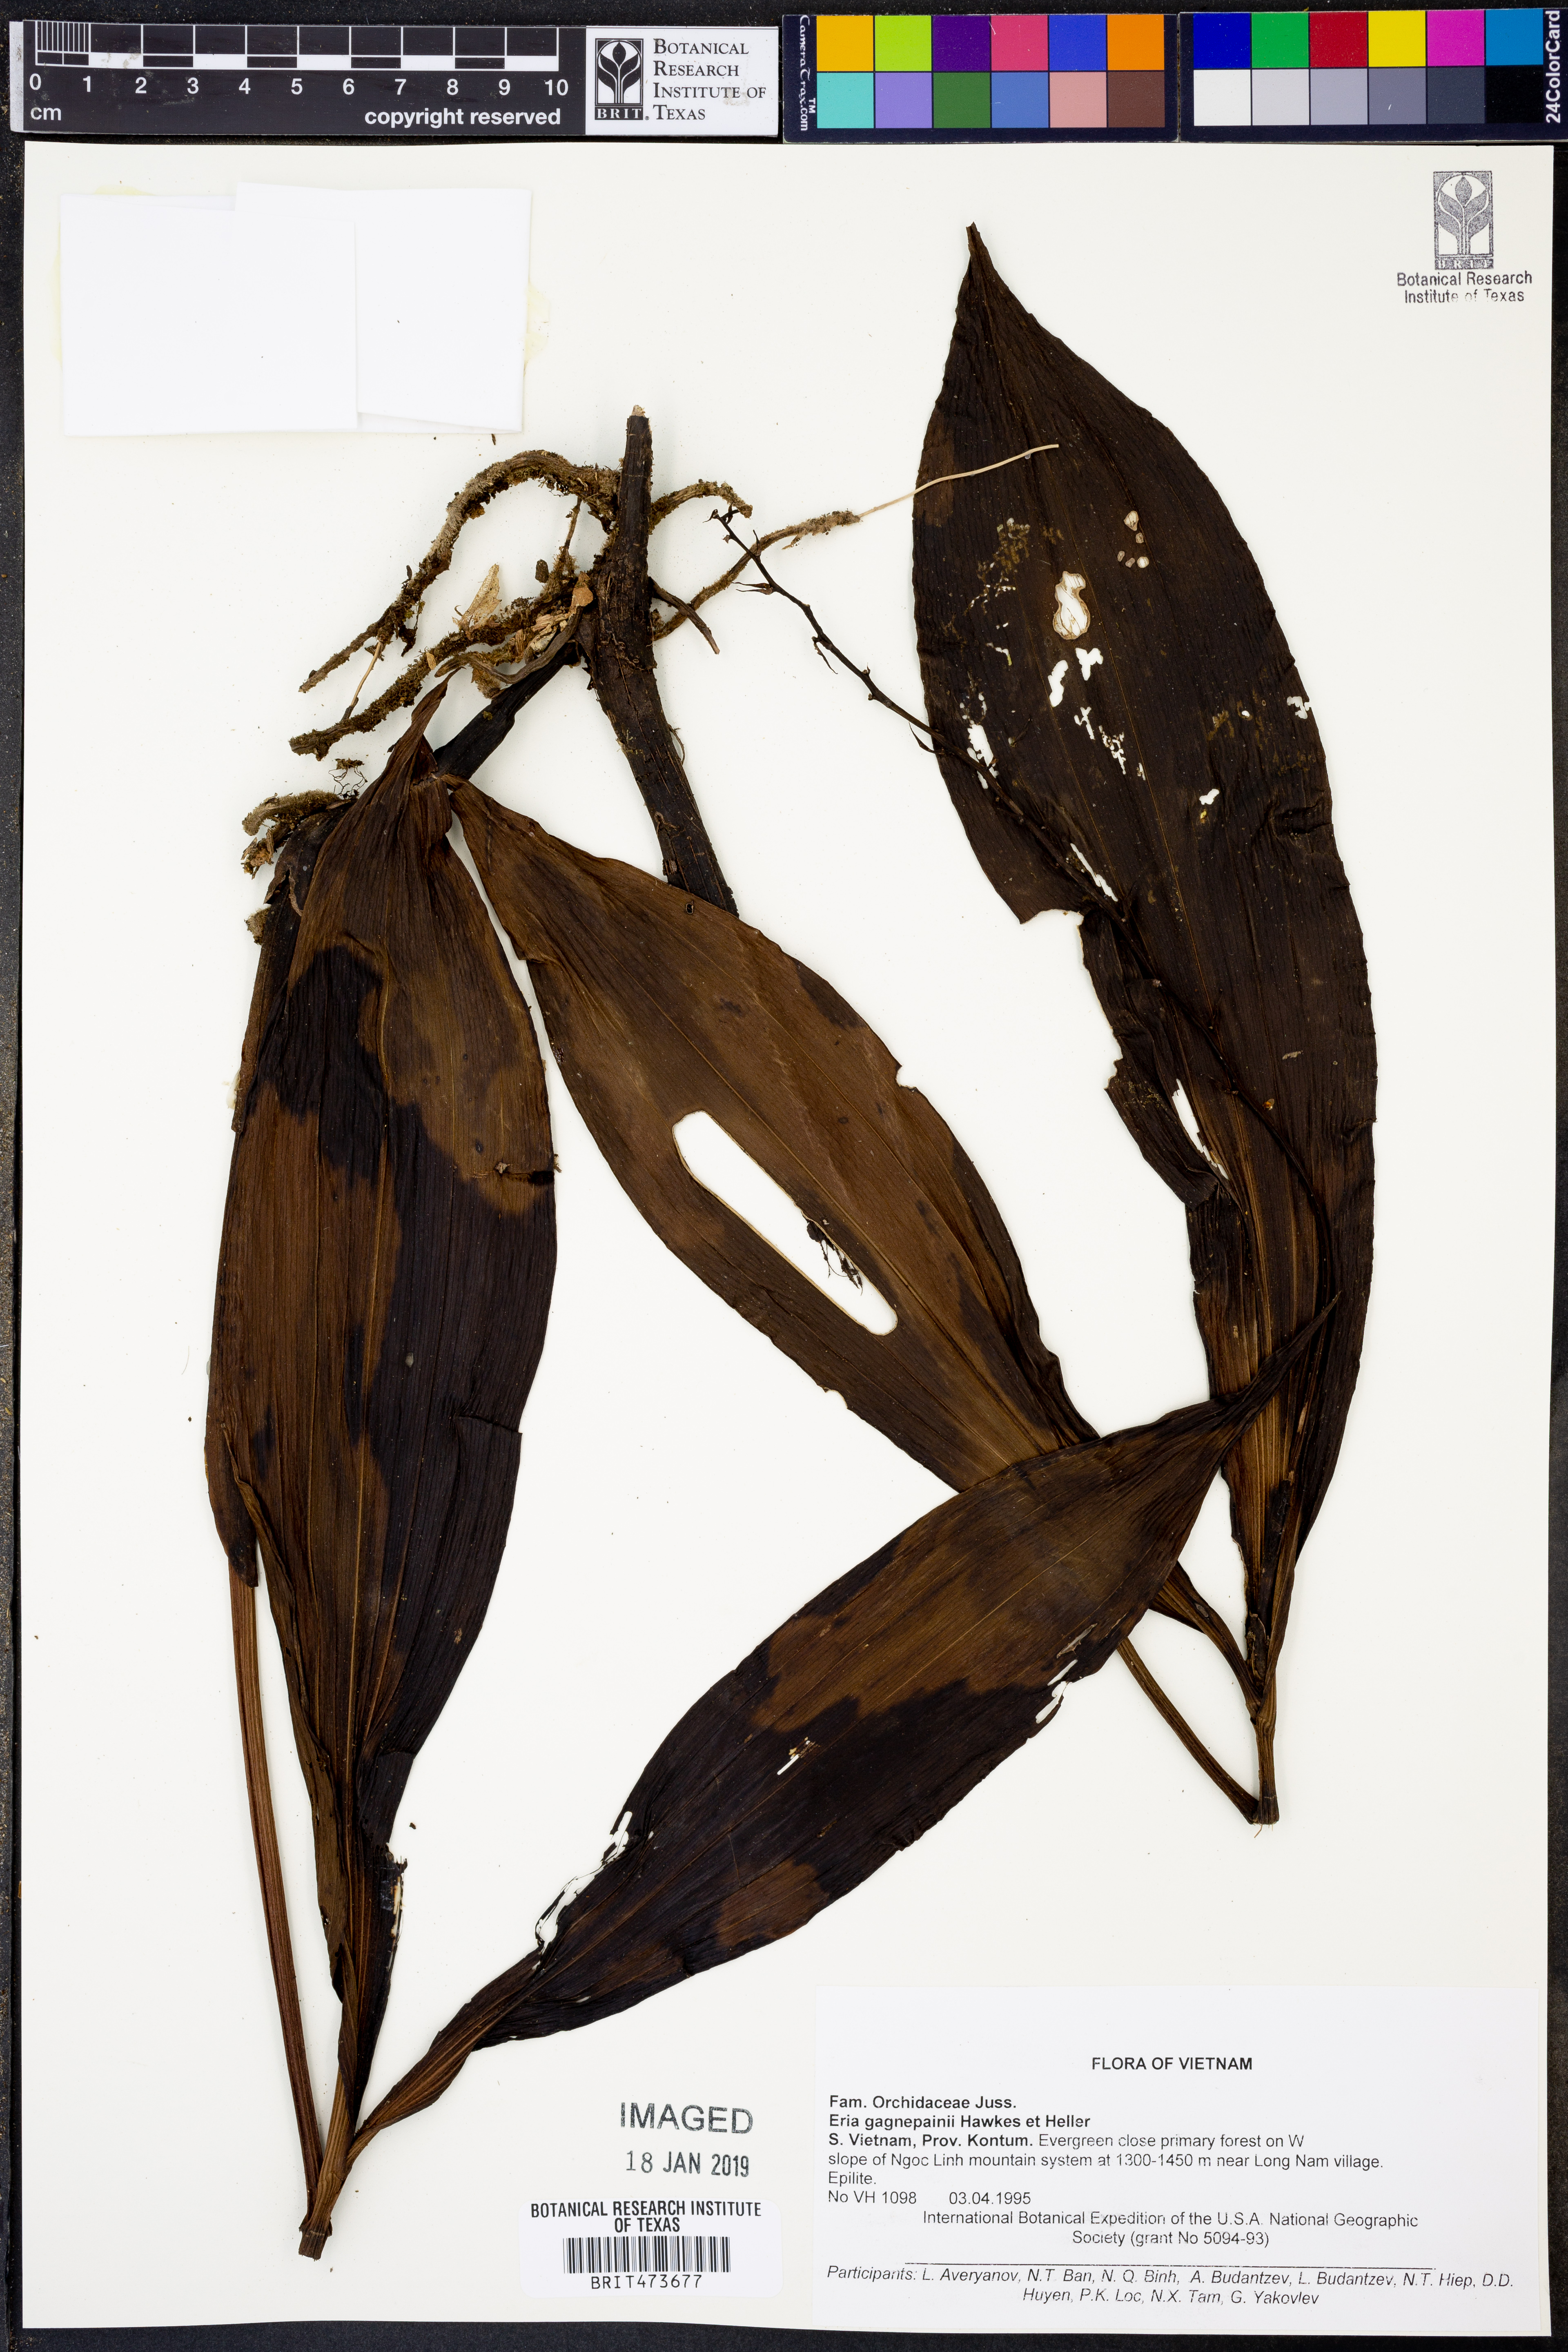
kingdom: Plantae
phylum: Tracheophyta
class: Liliopsida
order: Asparagales
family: Orchidaceae
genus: Eria
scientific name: Eria gagnepainii
